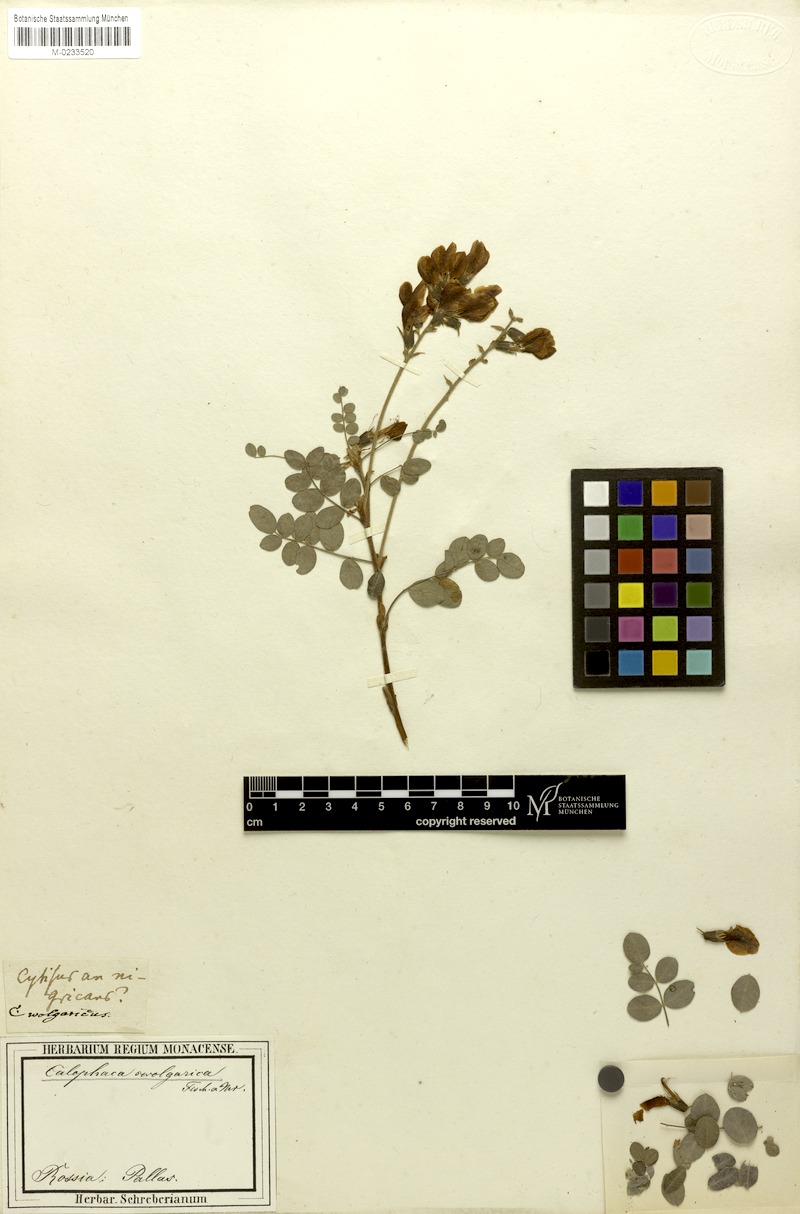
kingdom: Plantae
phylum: Tracheophyta
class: Magnoliopsida
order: Fabales
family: Fabaceae
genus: Calophaca
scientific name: Calophaca wolgarica
